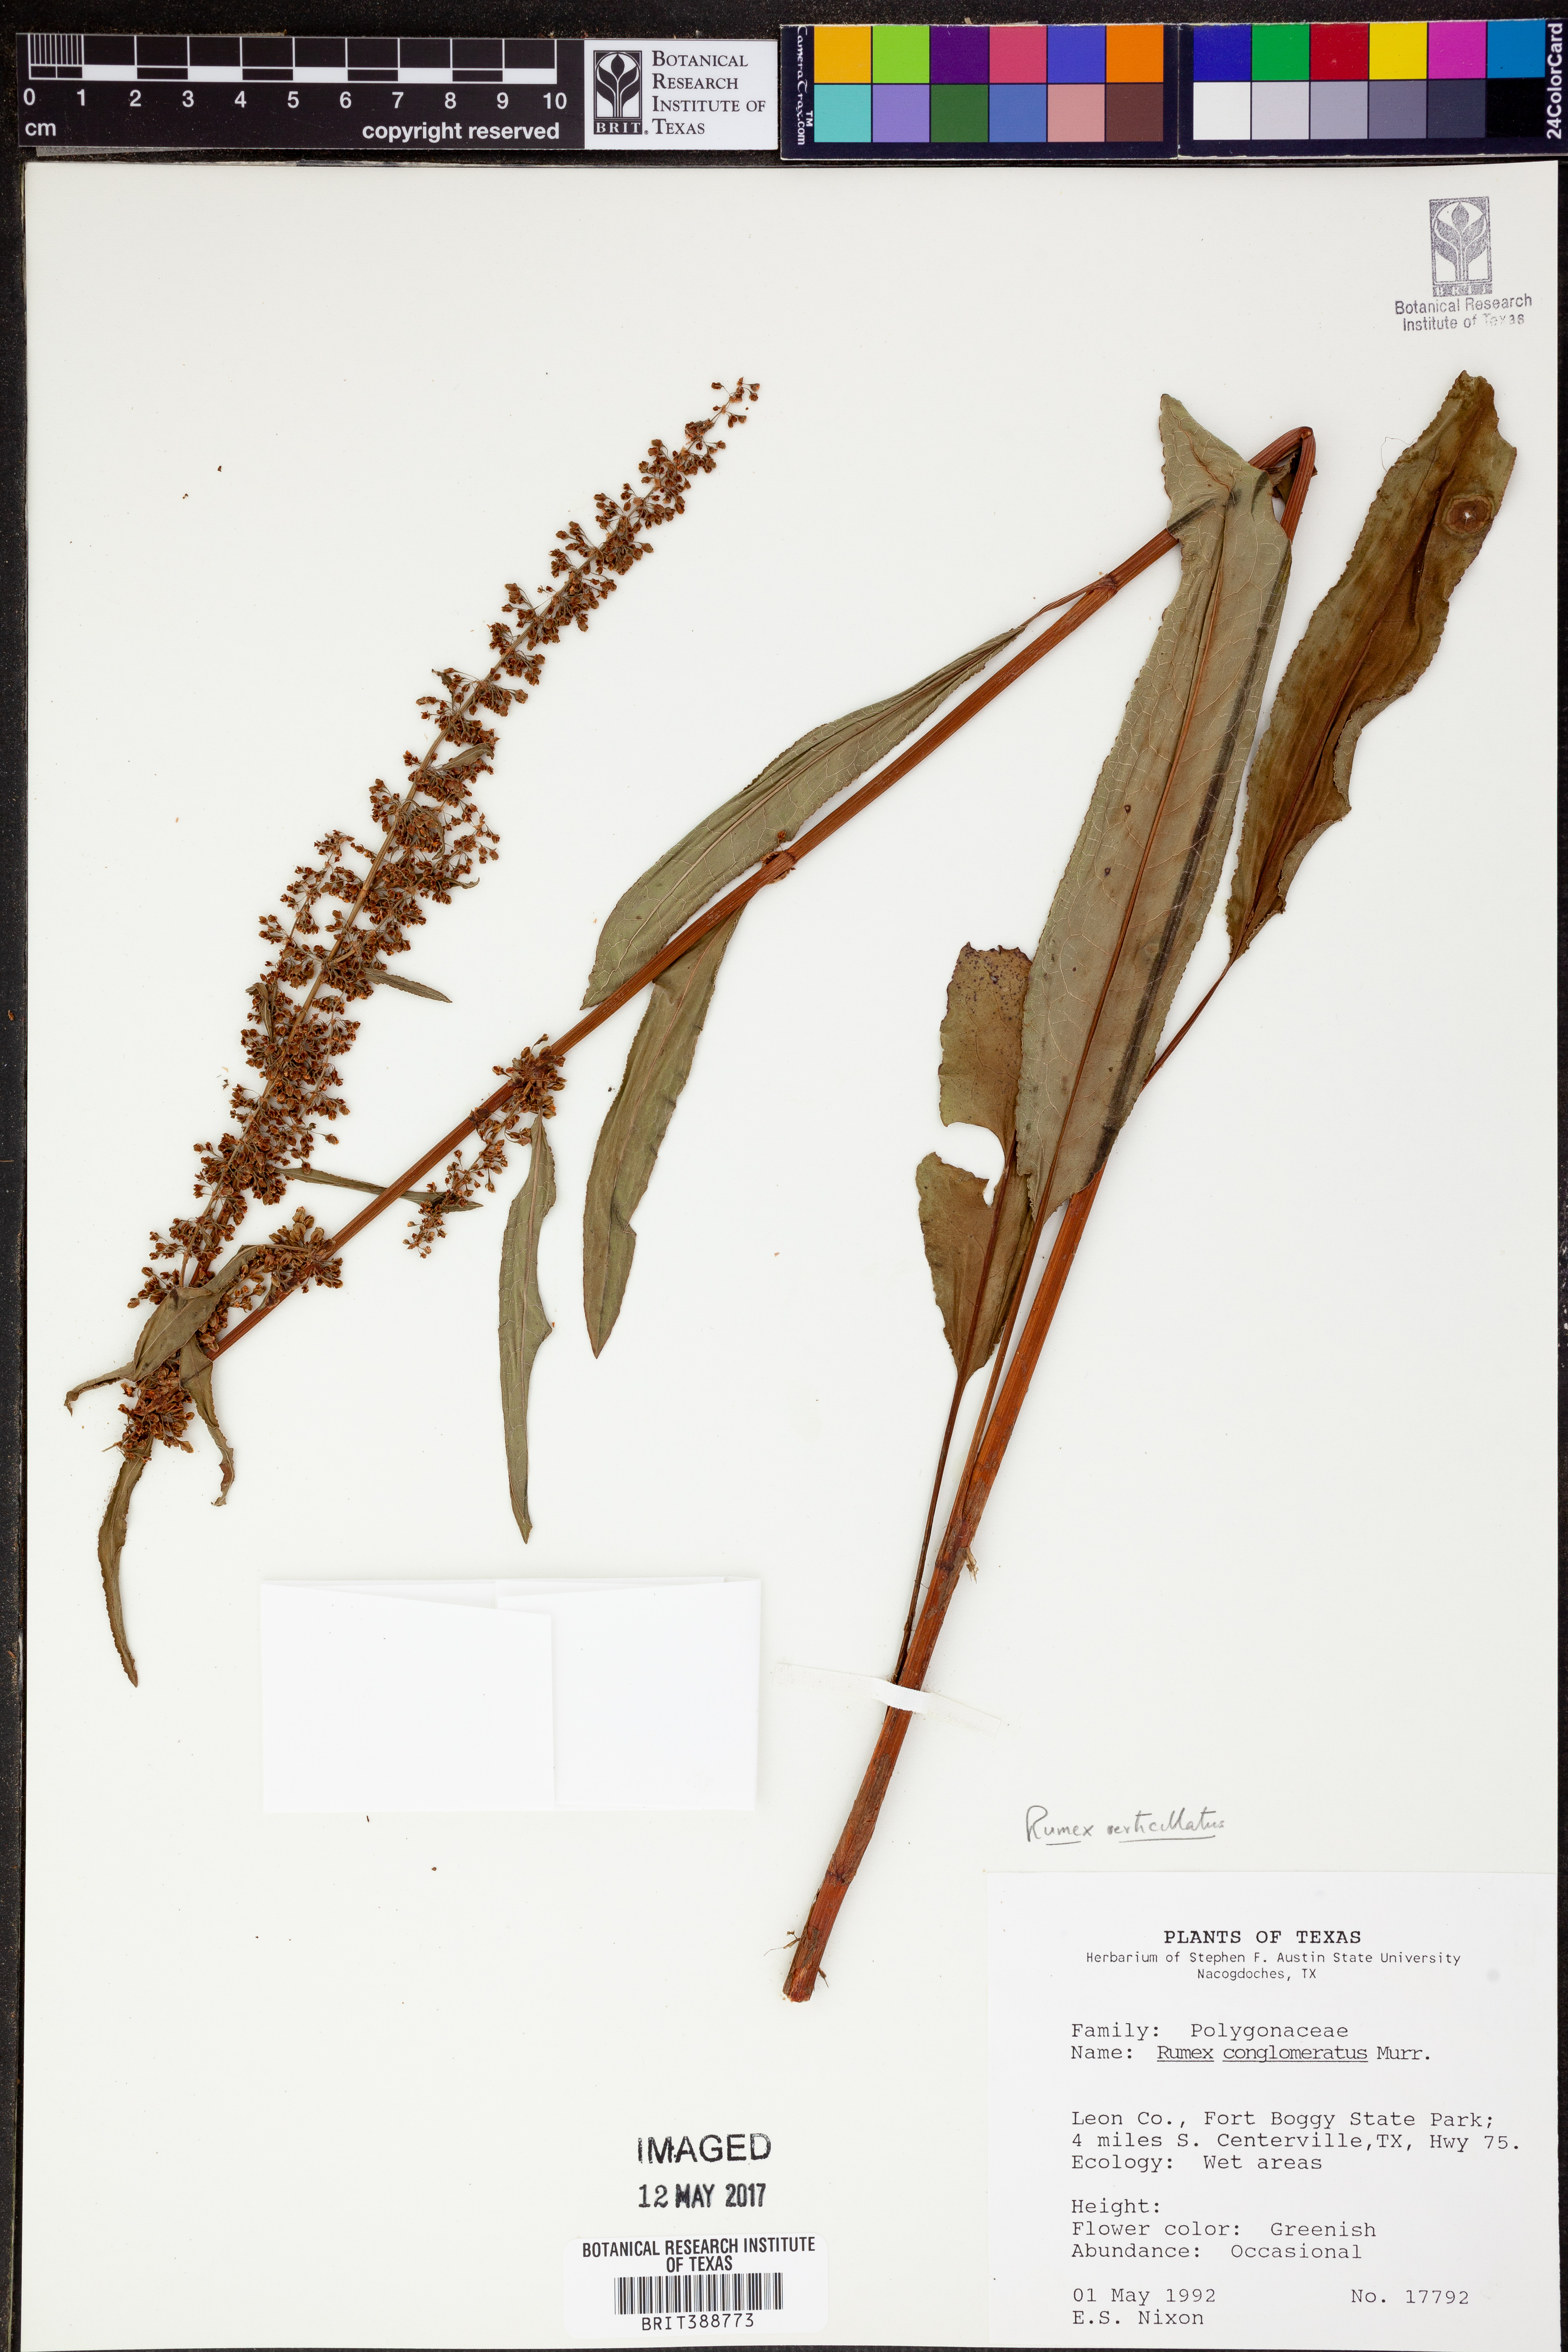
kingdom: Plantae
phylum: Tracheophyta
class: Magnoliopsida
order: Caryophyllales
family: Polygonaceae
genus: Rumex
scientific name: Rumex conglomeratus
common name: Clustered dock
